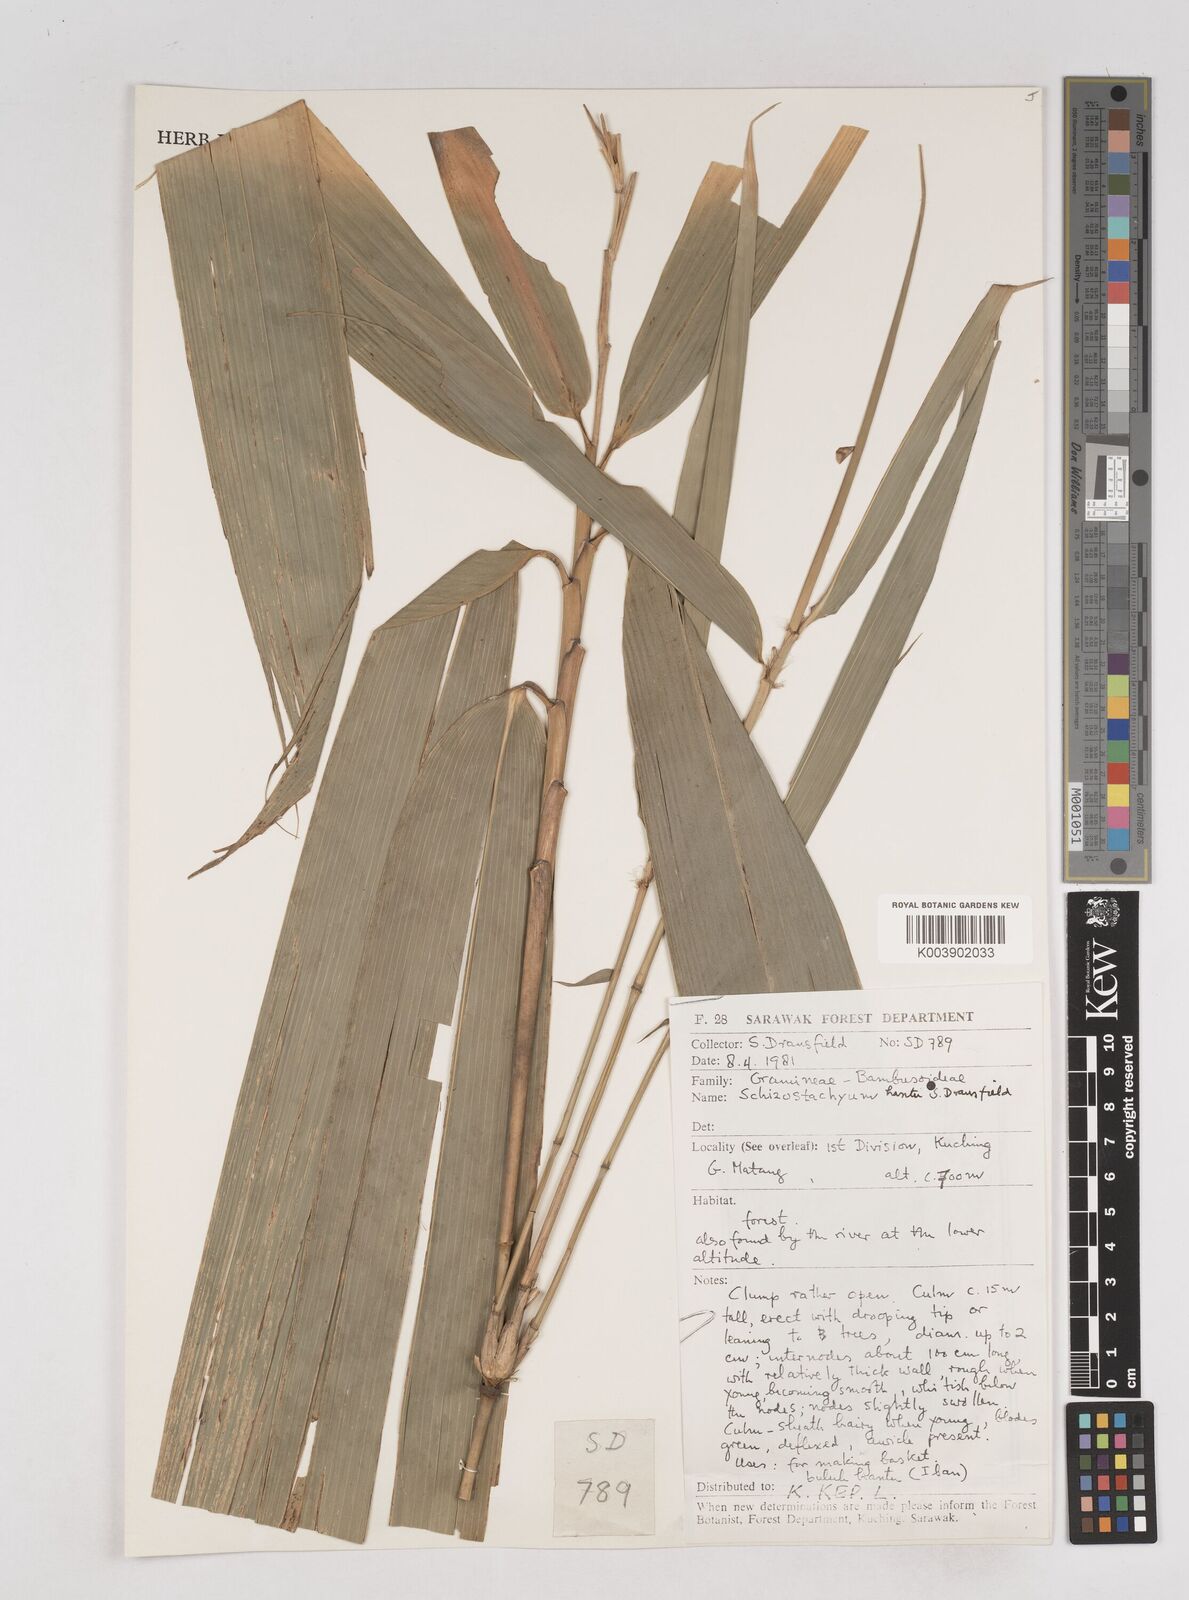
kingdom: Plantae
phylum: Tracheophyta
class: Liliopsida
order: Poales
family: Poaceae
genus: Schizostachyum
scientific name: Schizostachyum hantu
